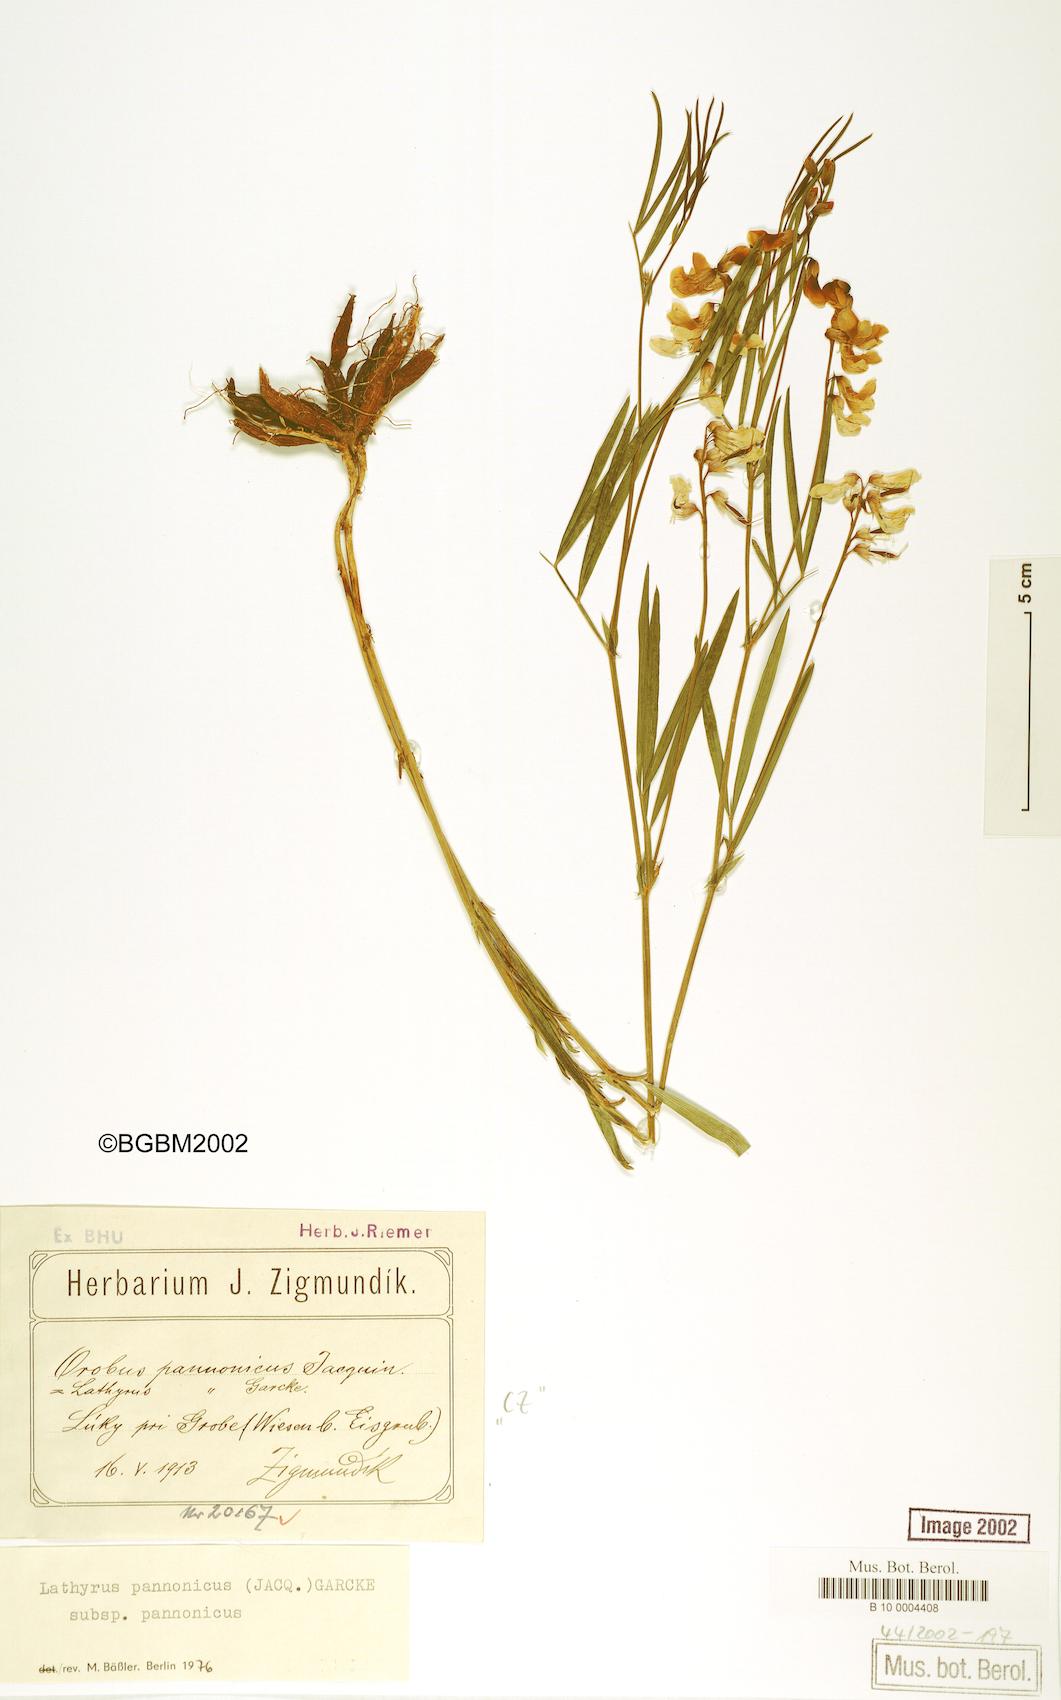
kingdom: Plantae
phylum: Tracheophyta
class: Magnoliopsida
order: Fabales
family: Fabaceae
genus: Lathyrus
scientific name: Lathyrus pannonicus
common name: Pea
